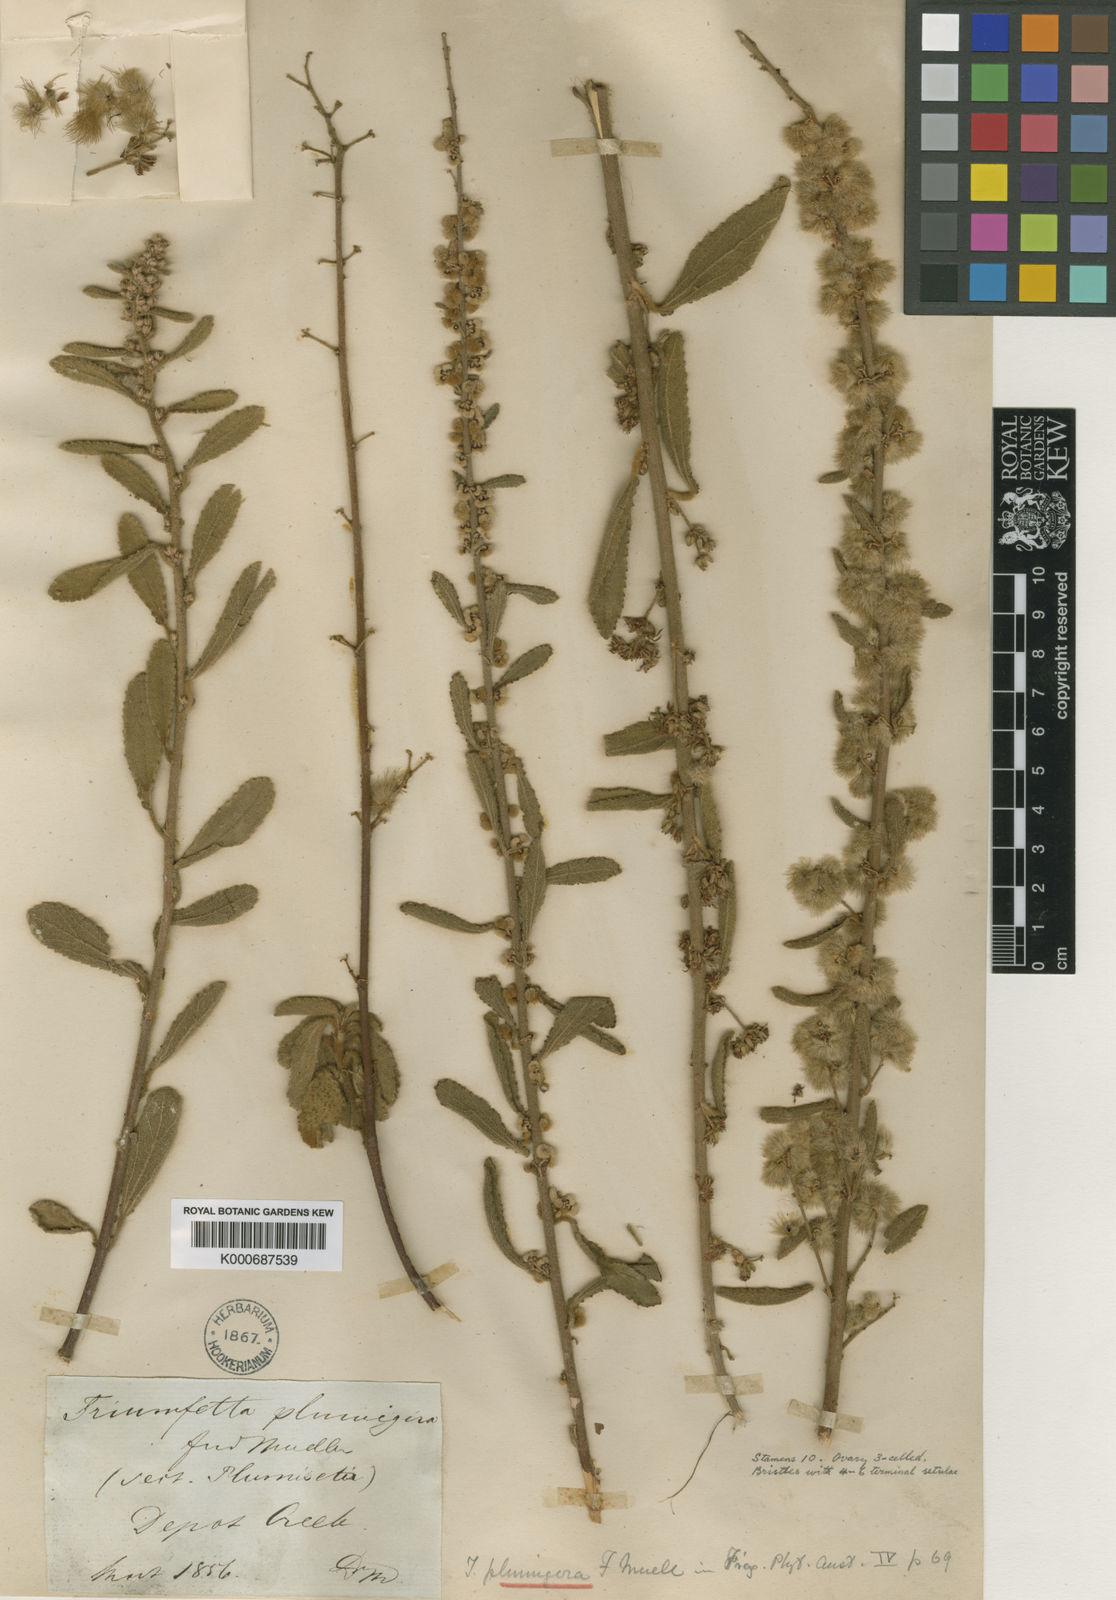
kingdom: Plantae
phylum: Tracheophyta
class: Magnoliopsida
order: Malvales
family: Malvaceae
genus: Triumfetta
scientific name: Triumfetta plumigera
